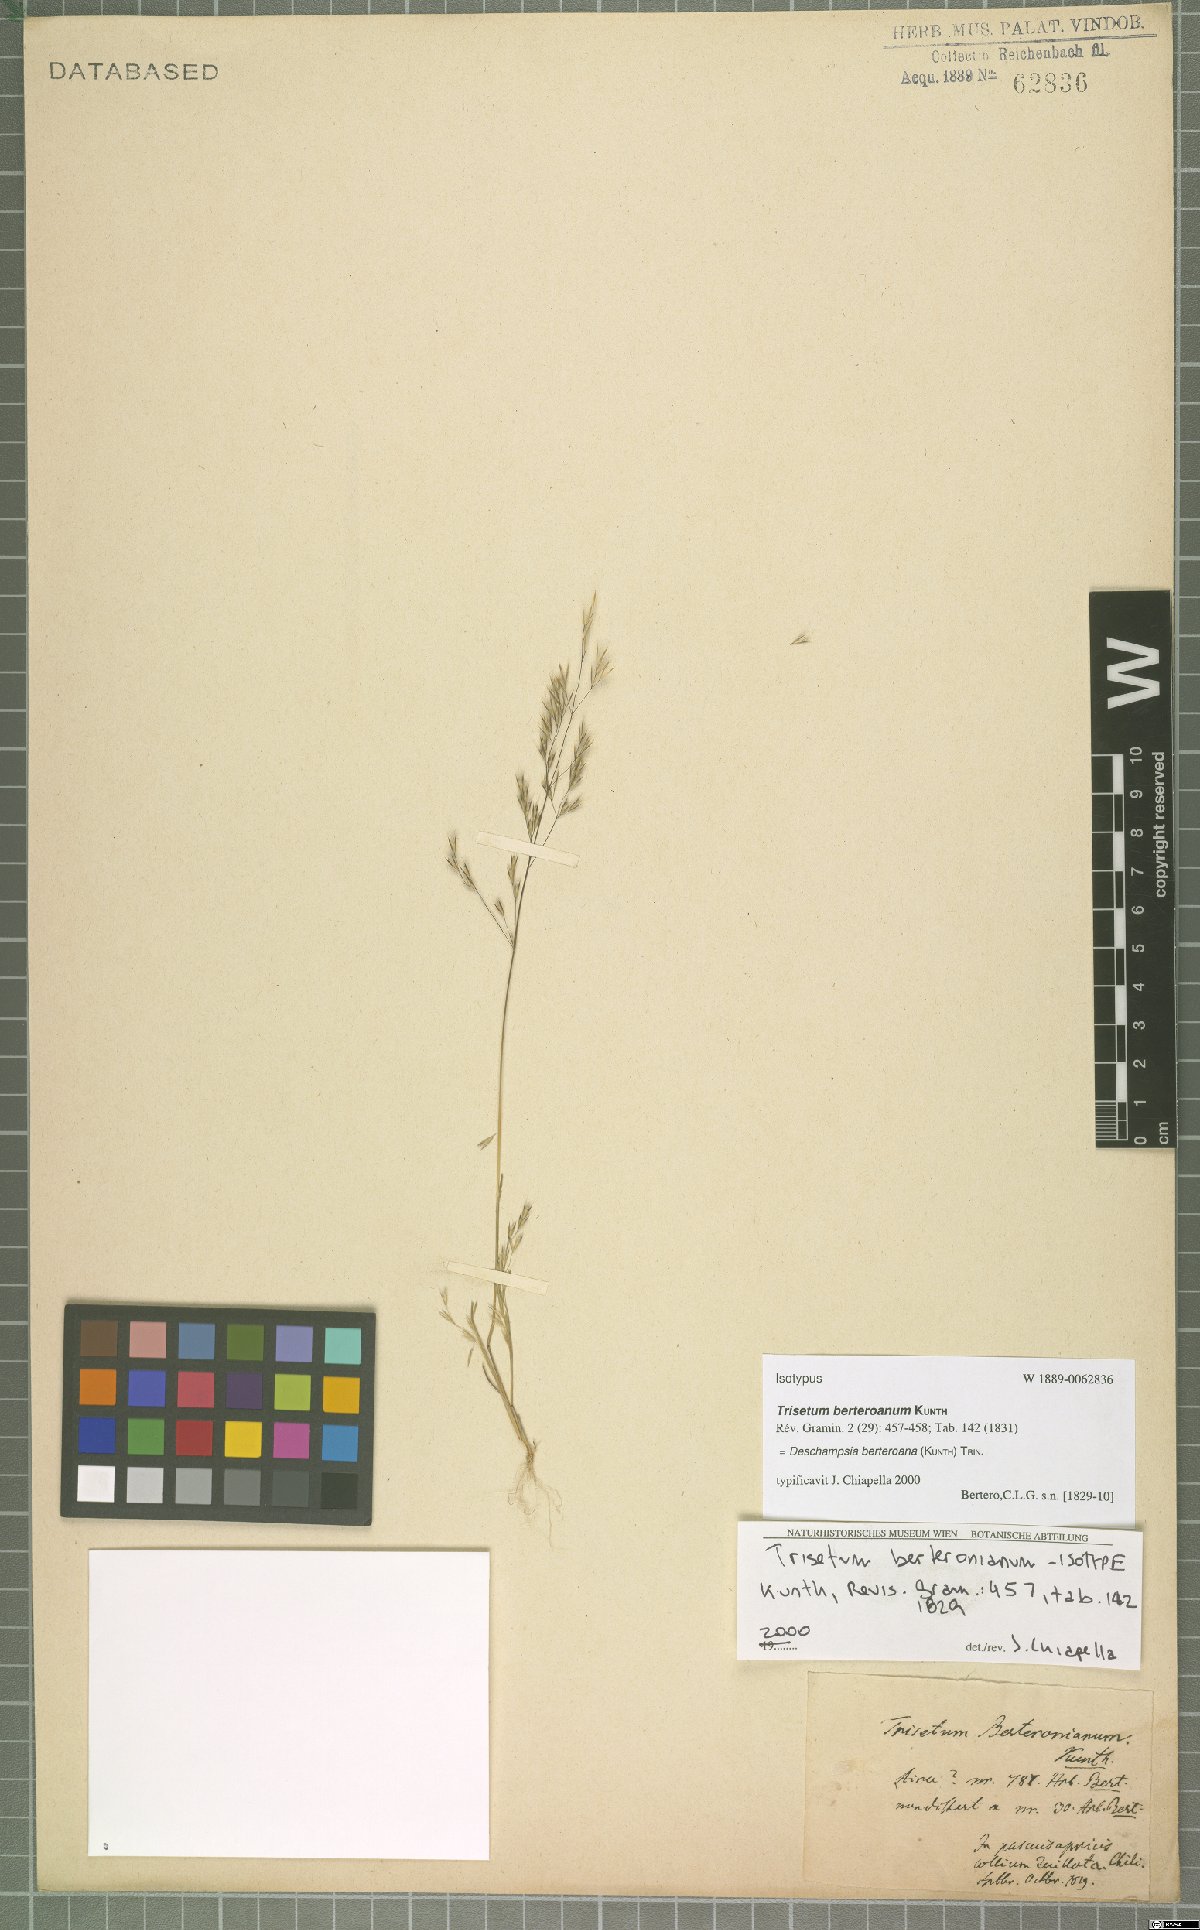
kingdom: Plantae
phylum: Tracheophyta
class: Liliopsida
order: Poales
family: Poaceae
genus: Deschampsia
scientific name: Deschampsia berteroana
